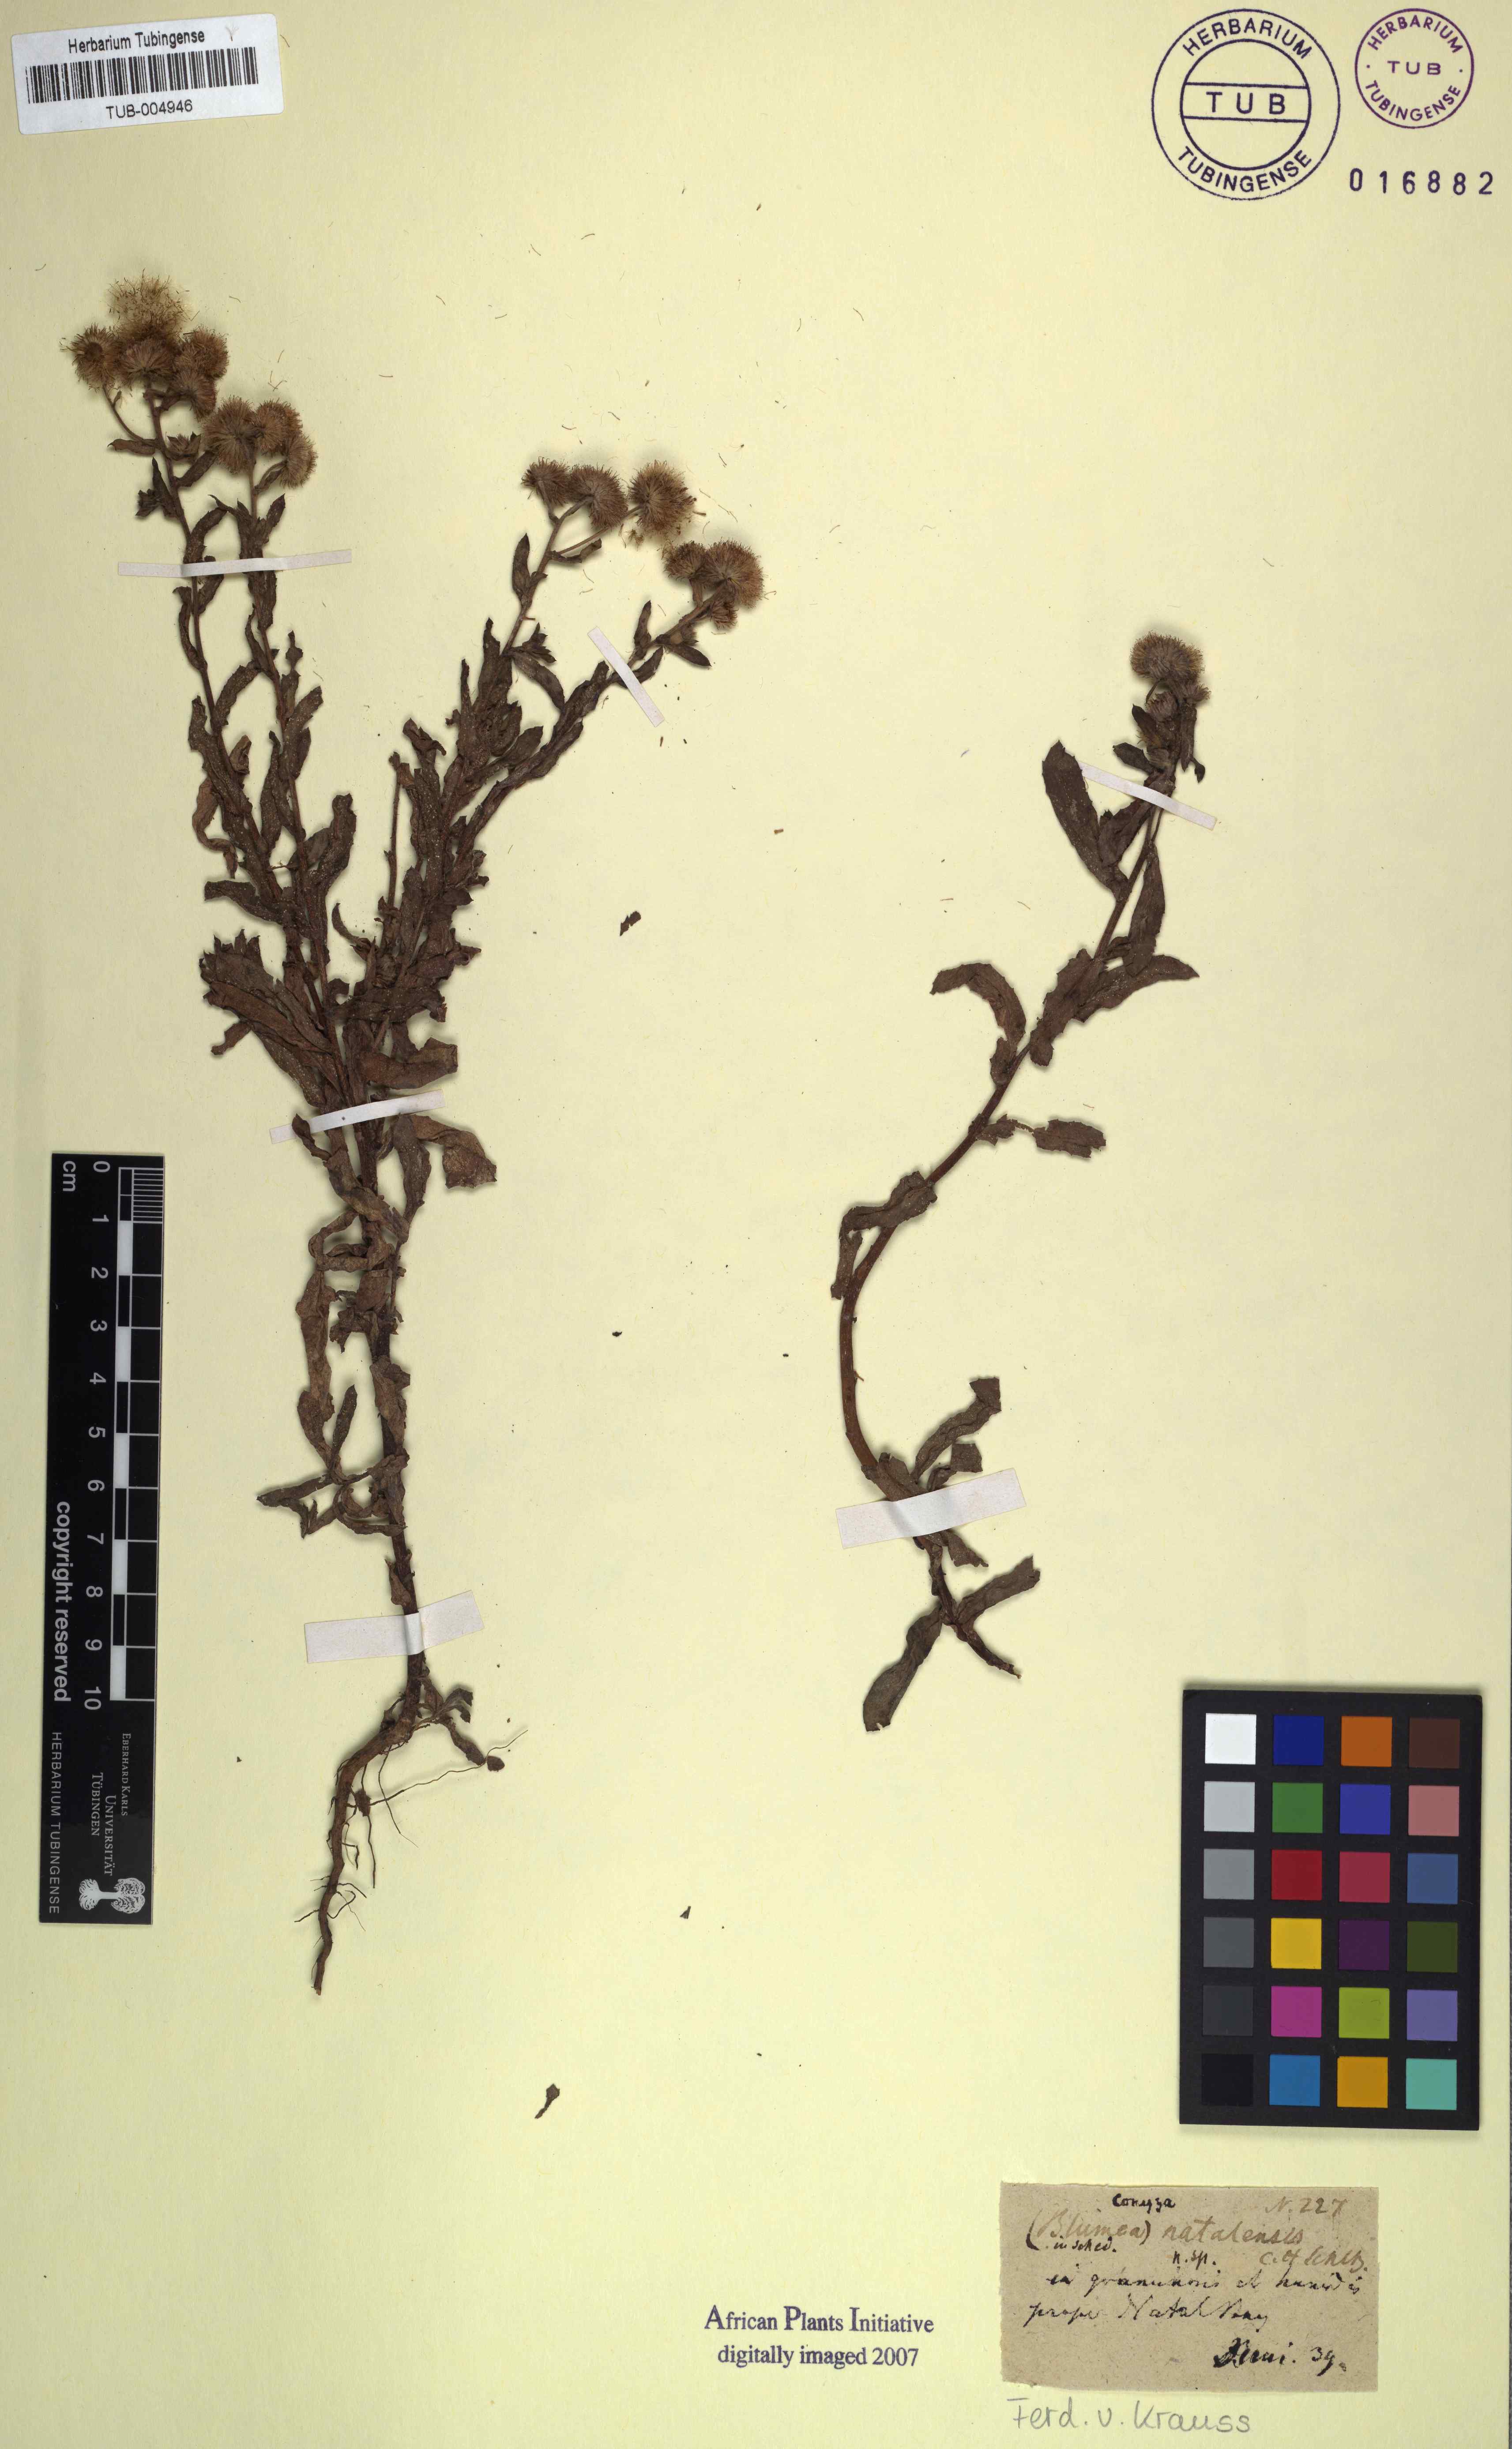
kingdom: Plantae
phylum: Tracheophyta
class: Magnoliopsida
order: Asterales
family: Asteraceae
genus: Doellia
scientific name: Doellia cafra
